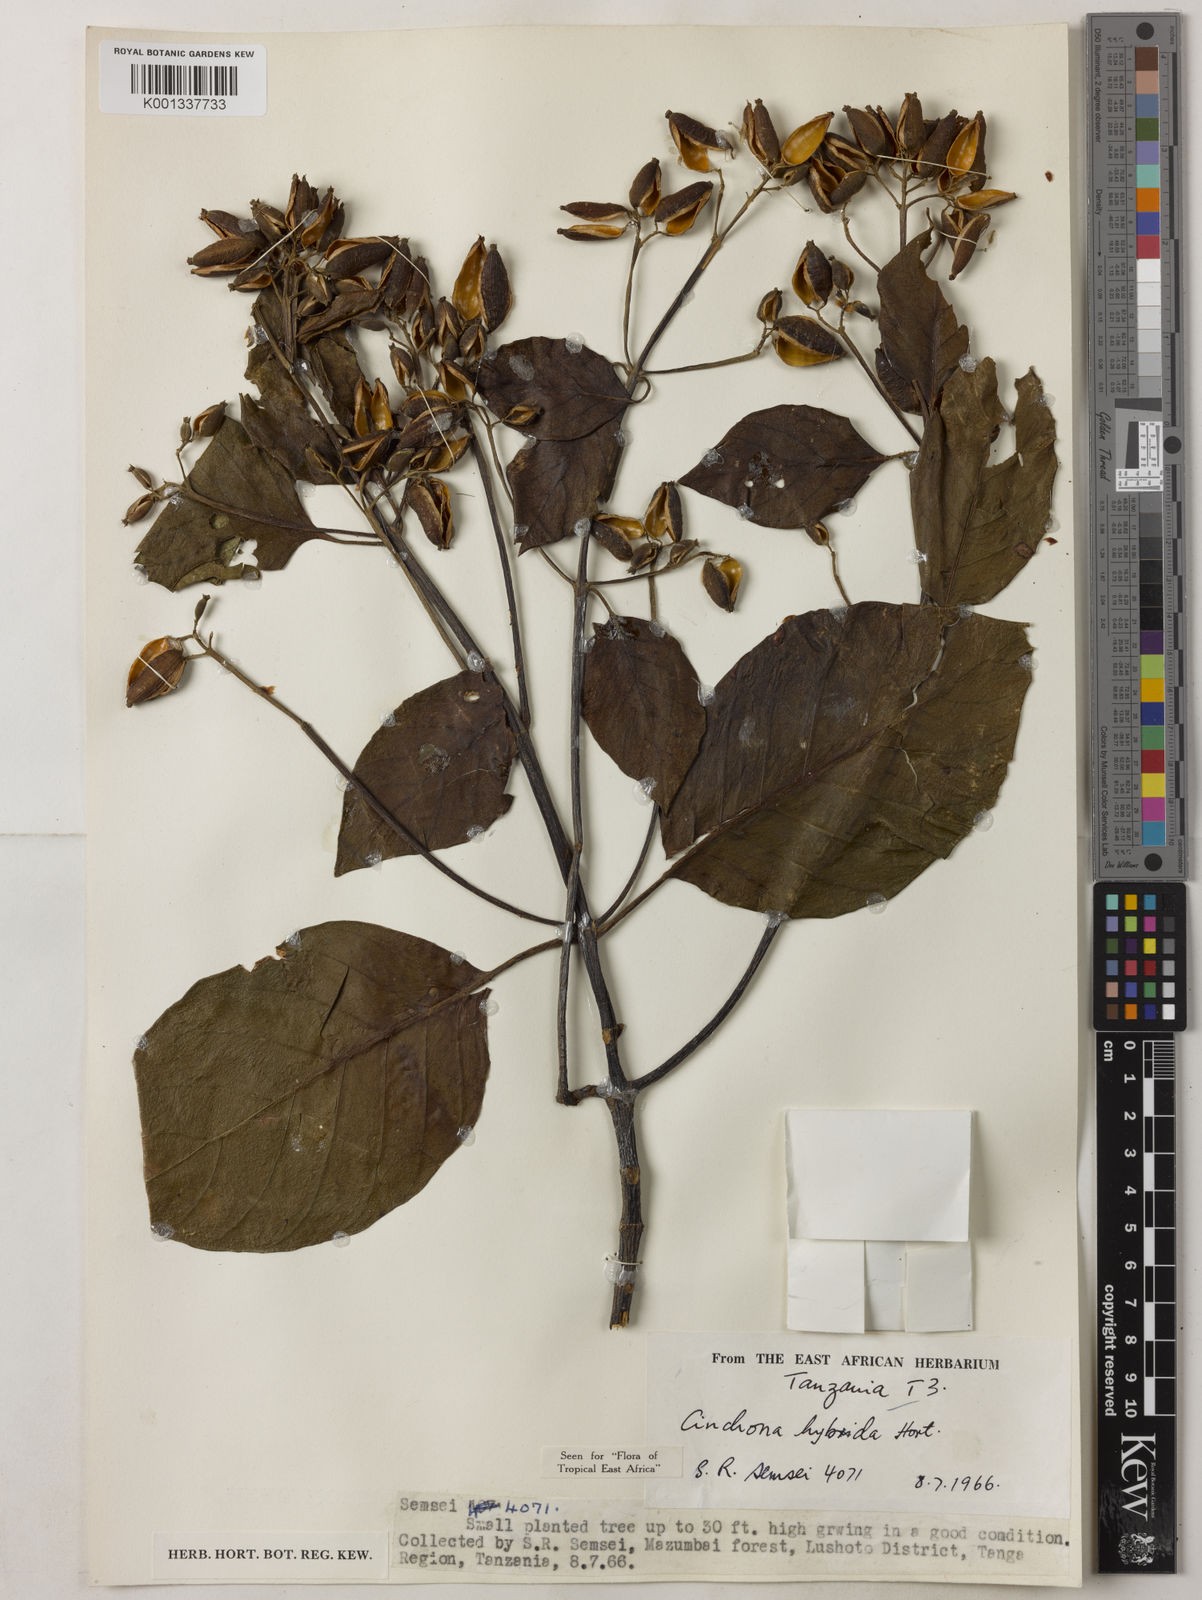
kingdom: Plantae
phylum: Tracheophyta
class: Magnoliopsida
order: Gentianales
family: Rubiaceae
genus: Cinchona
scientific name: Cinchona
